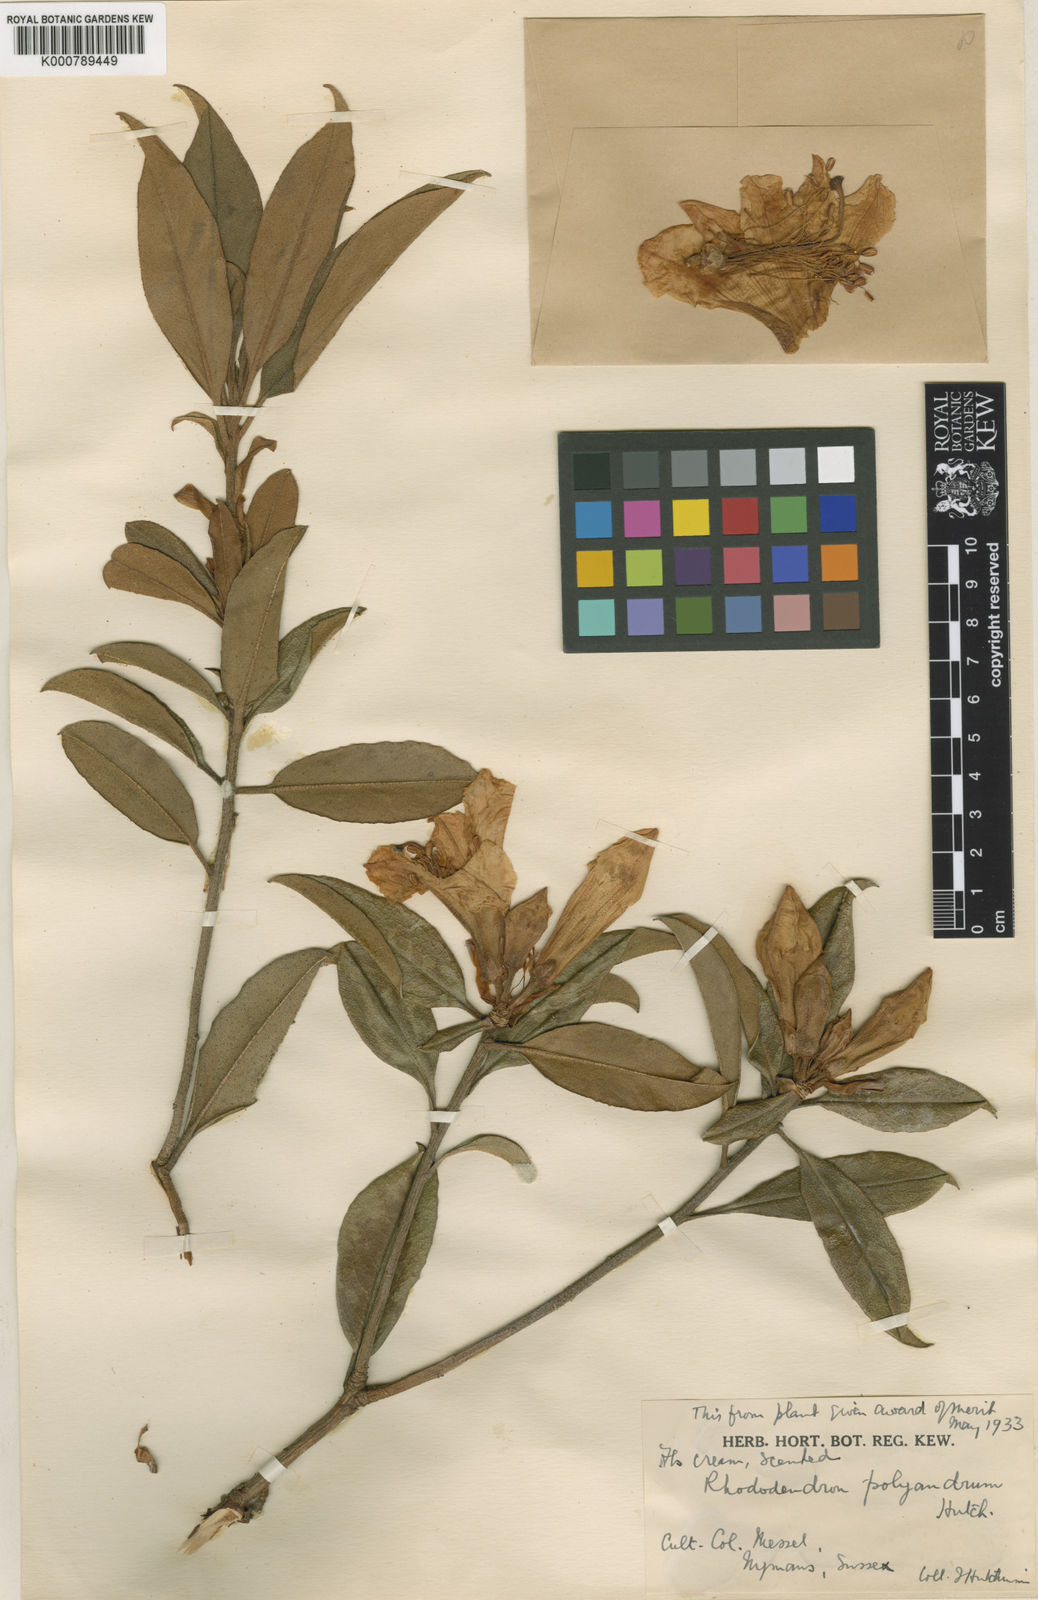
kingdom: Plantae
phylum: Tracheophyta
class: Magnoliopsida
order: Ericales
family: Ericaceae
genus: Rhododendron
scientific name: Rhododendron
